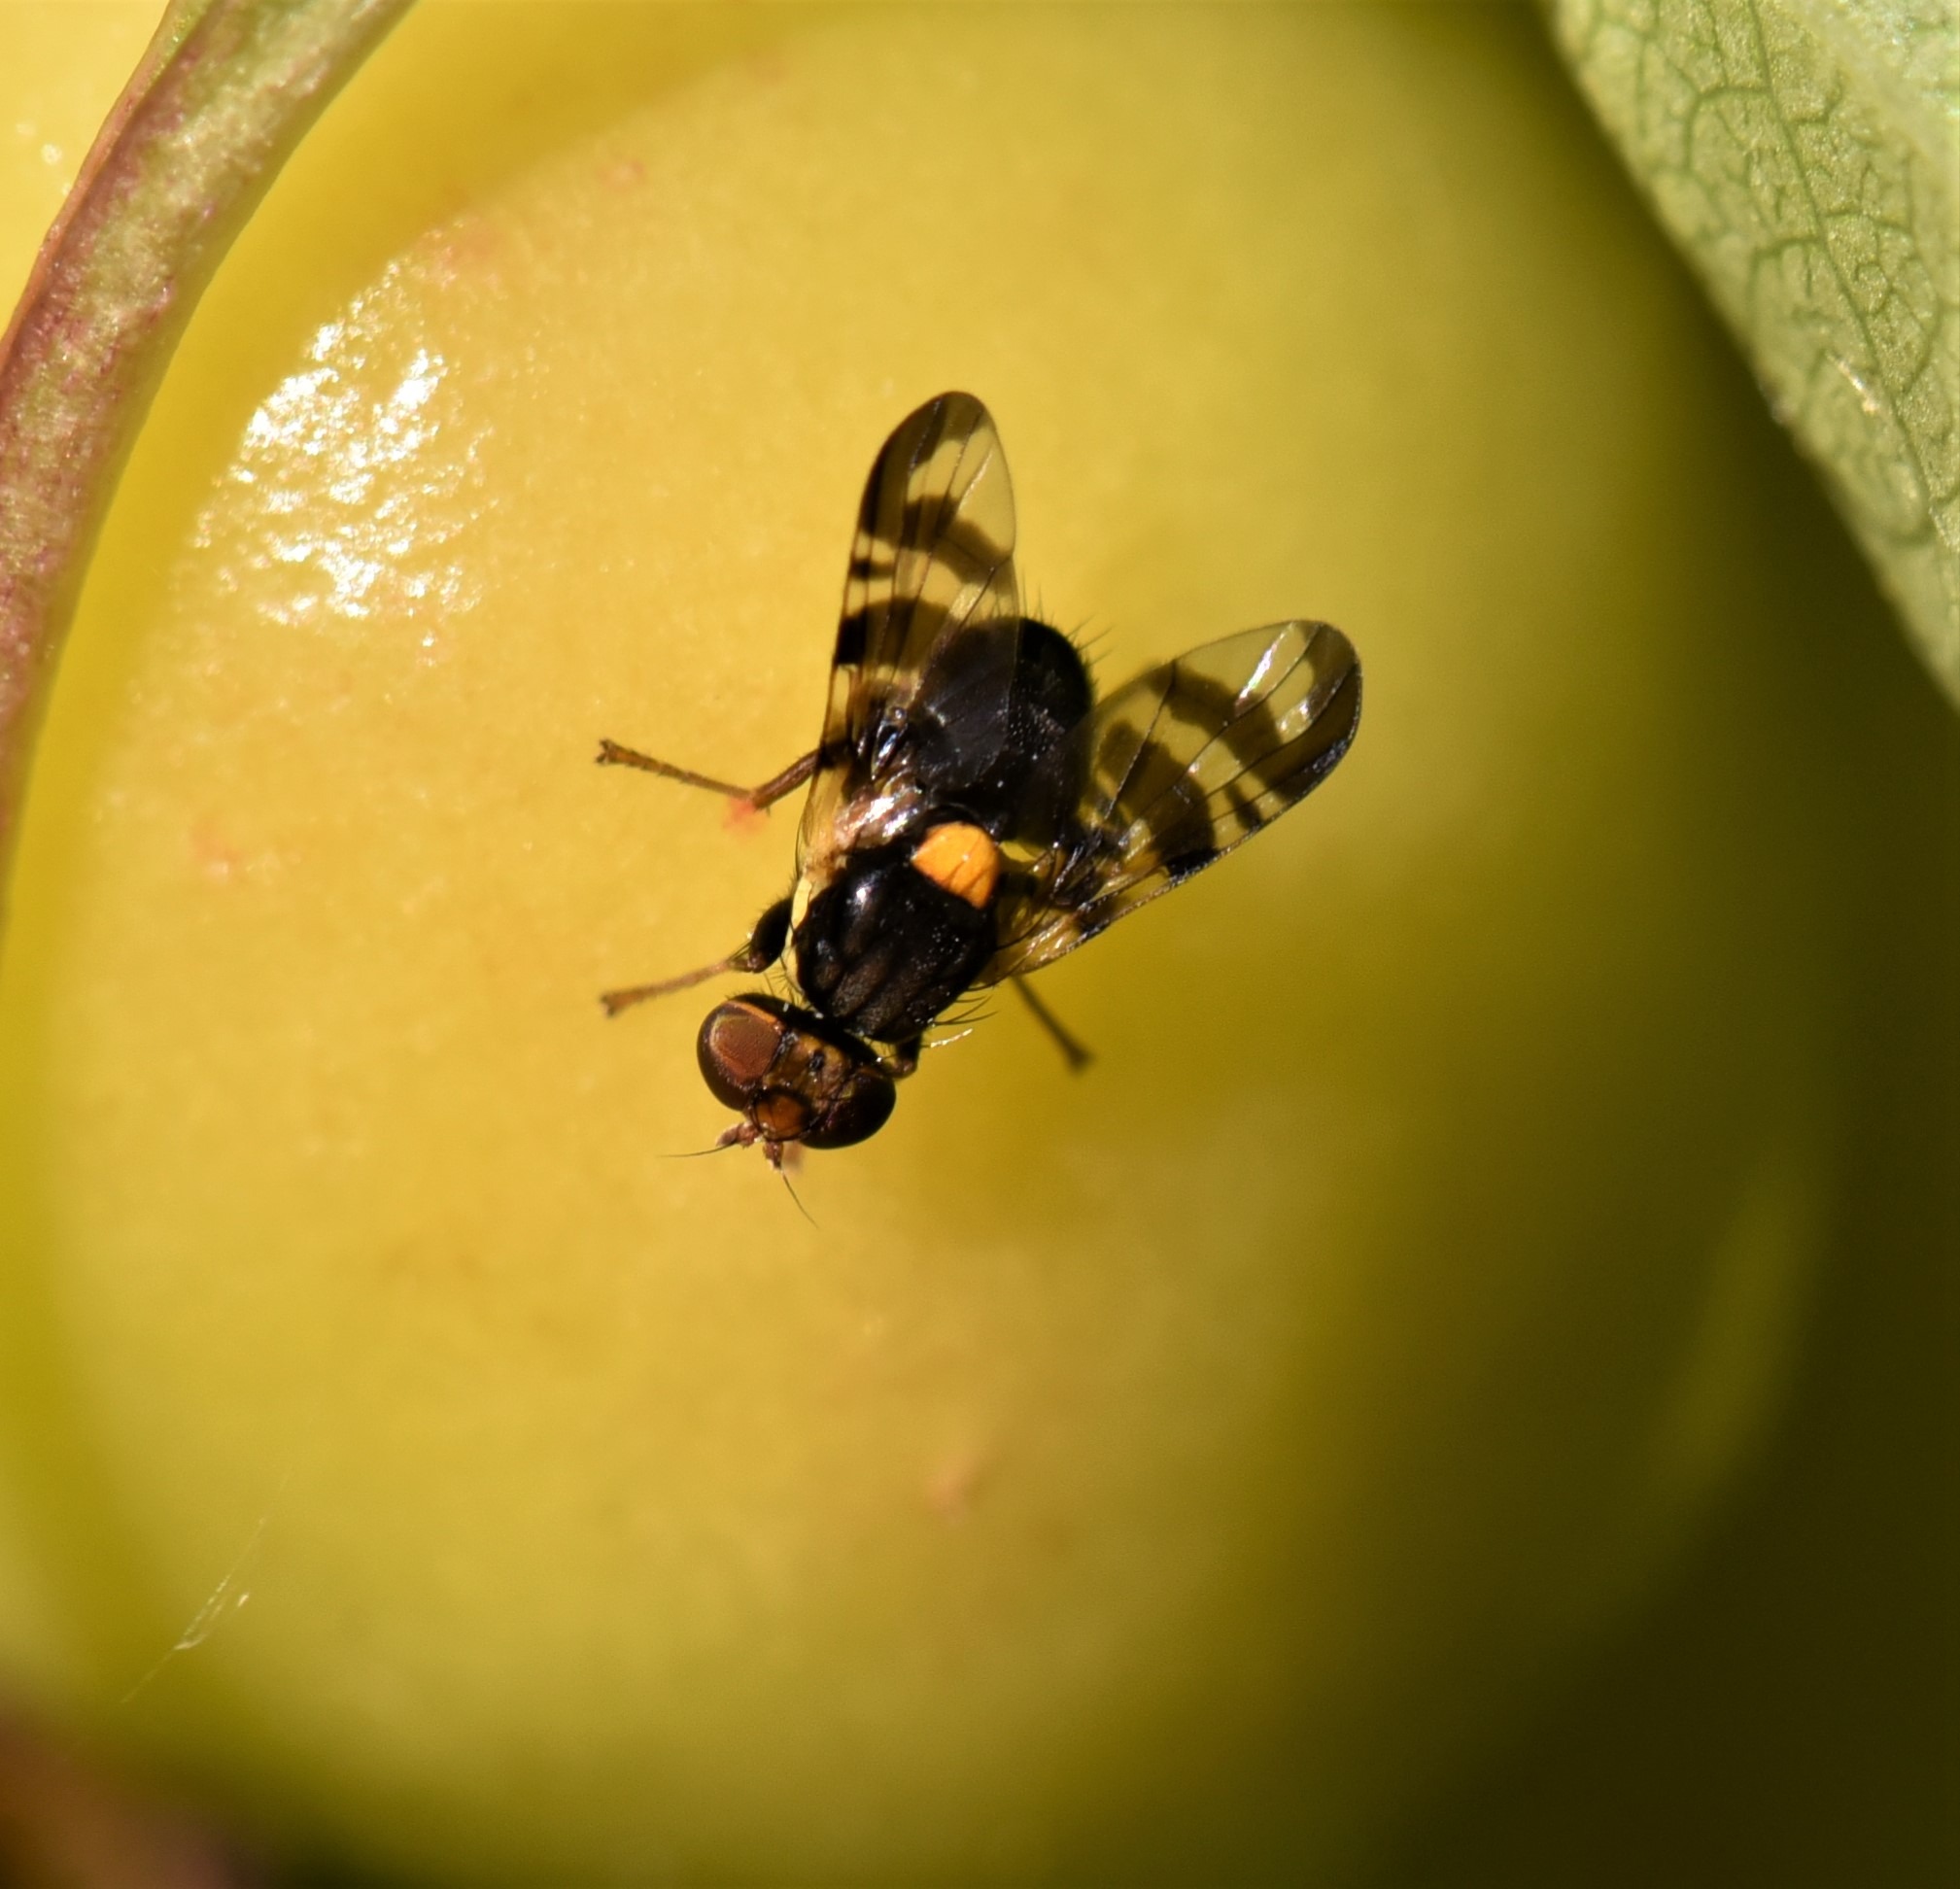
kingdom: Animalia
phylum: Arthropoda
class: Insecta
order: Diptera
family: Tephritidae
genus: Rhagoletis
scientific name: Rhagoletis cerasi
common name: Kirsebærflue
